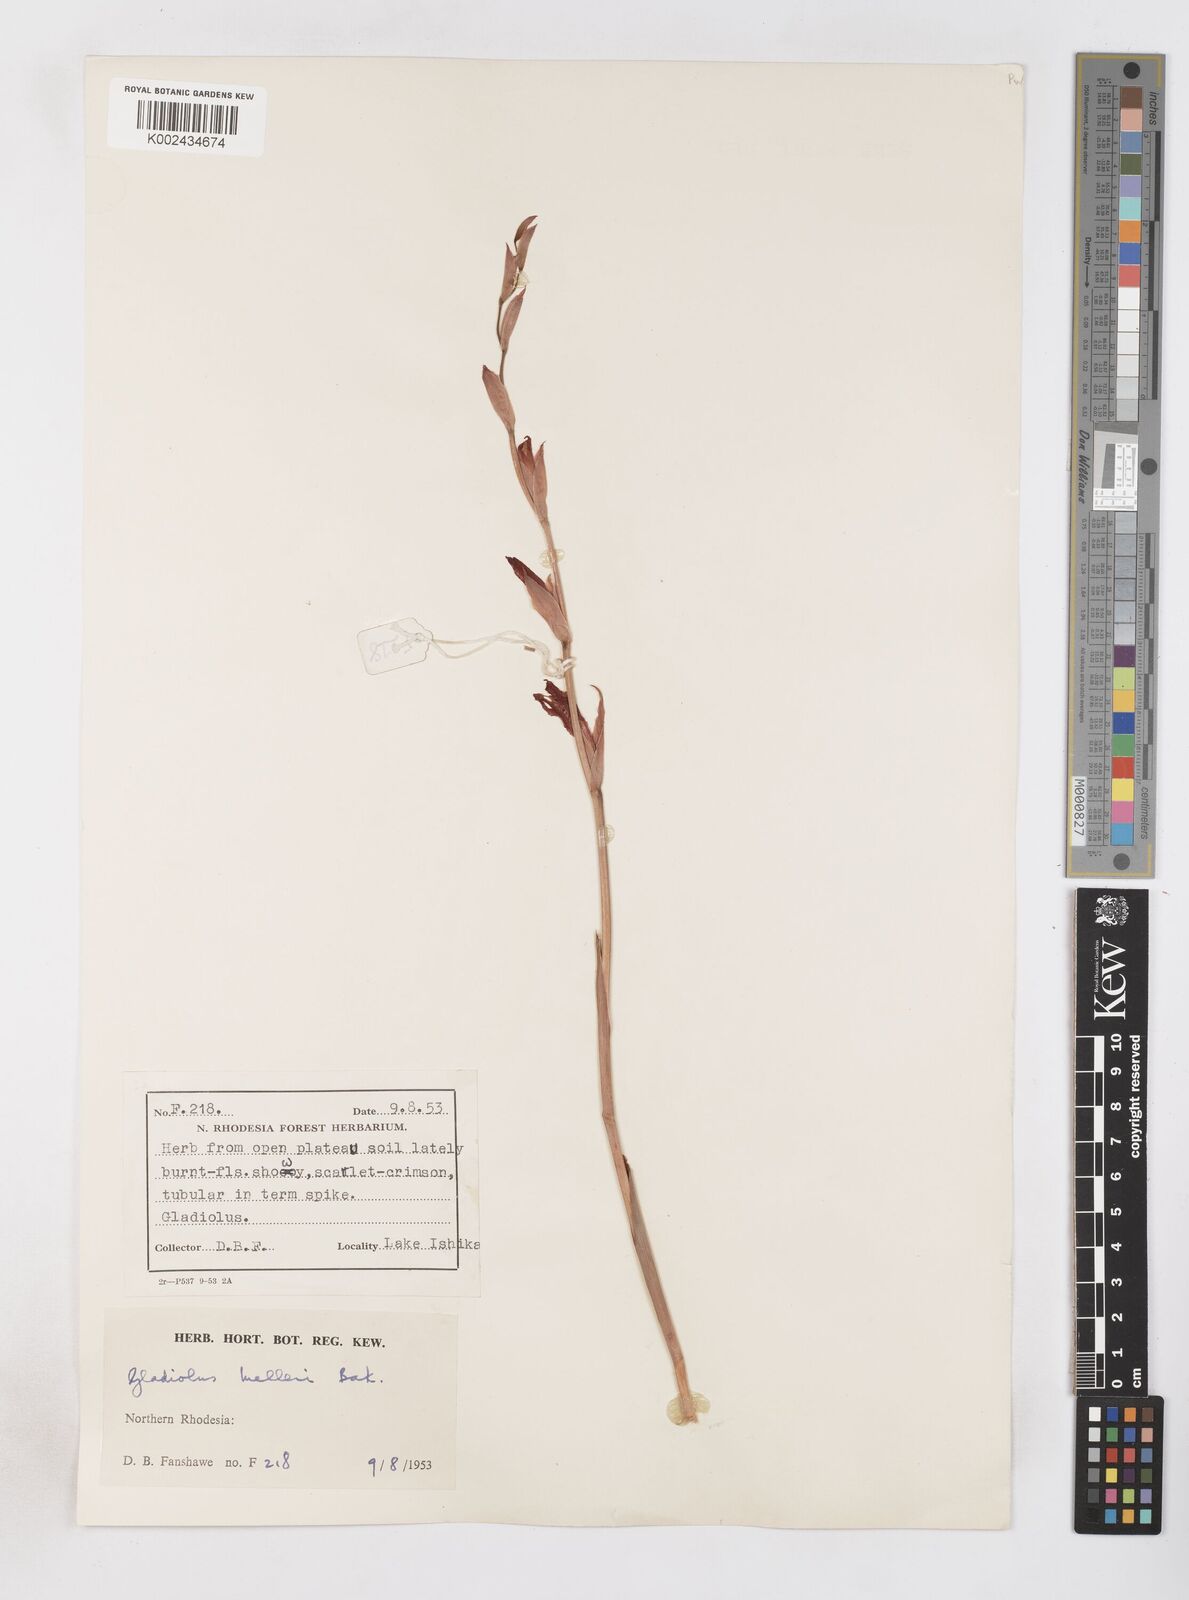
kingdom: Plantae
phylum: Tracheophyta
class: Liliopsida
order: Asparagales
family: Iridaceae
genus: Gladiolus
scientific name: Gladiolus melleri
